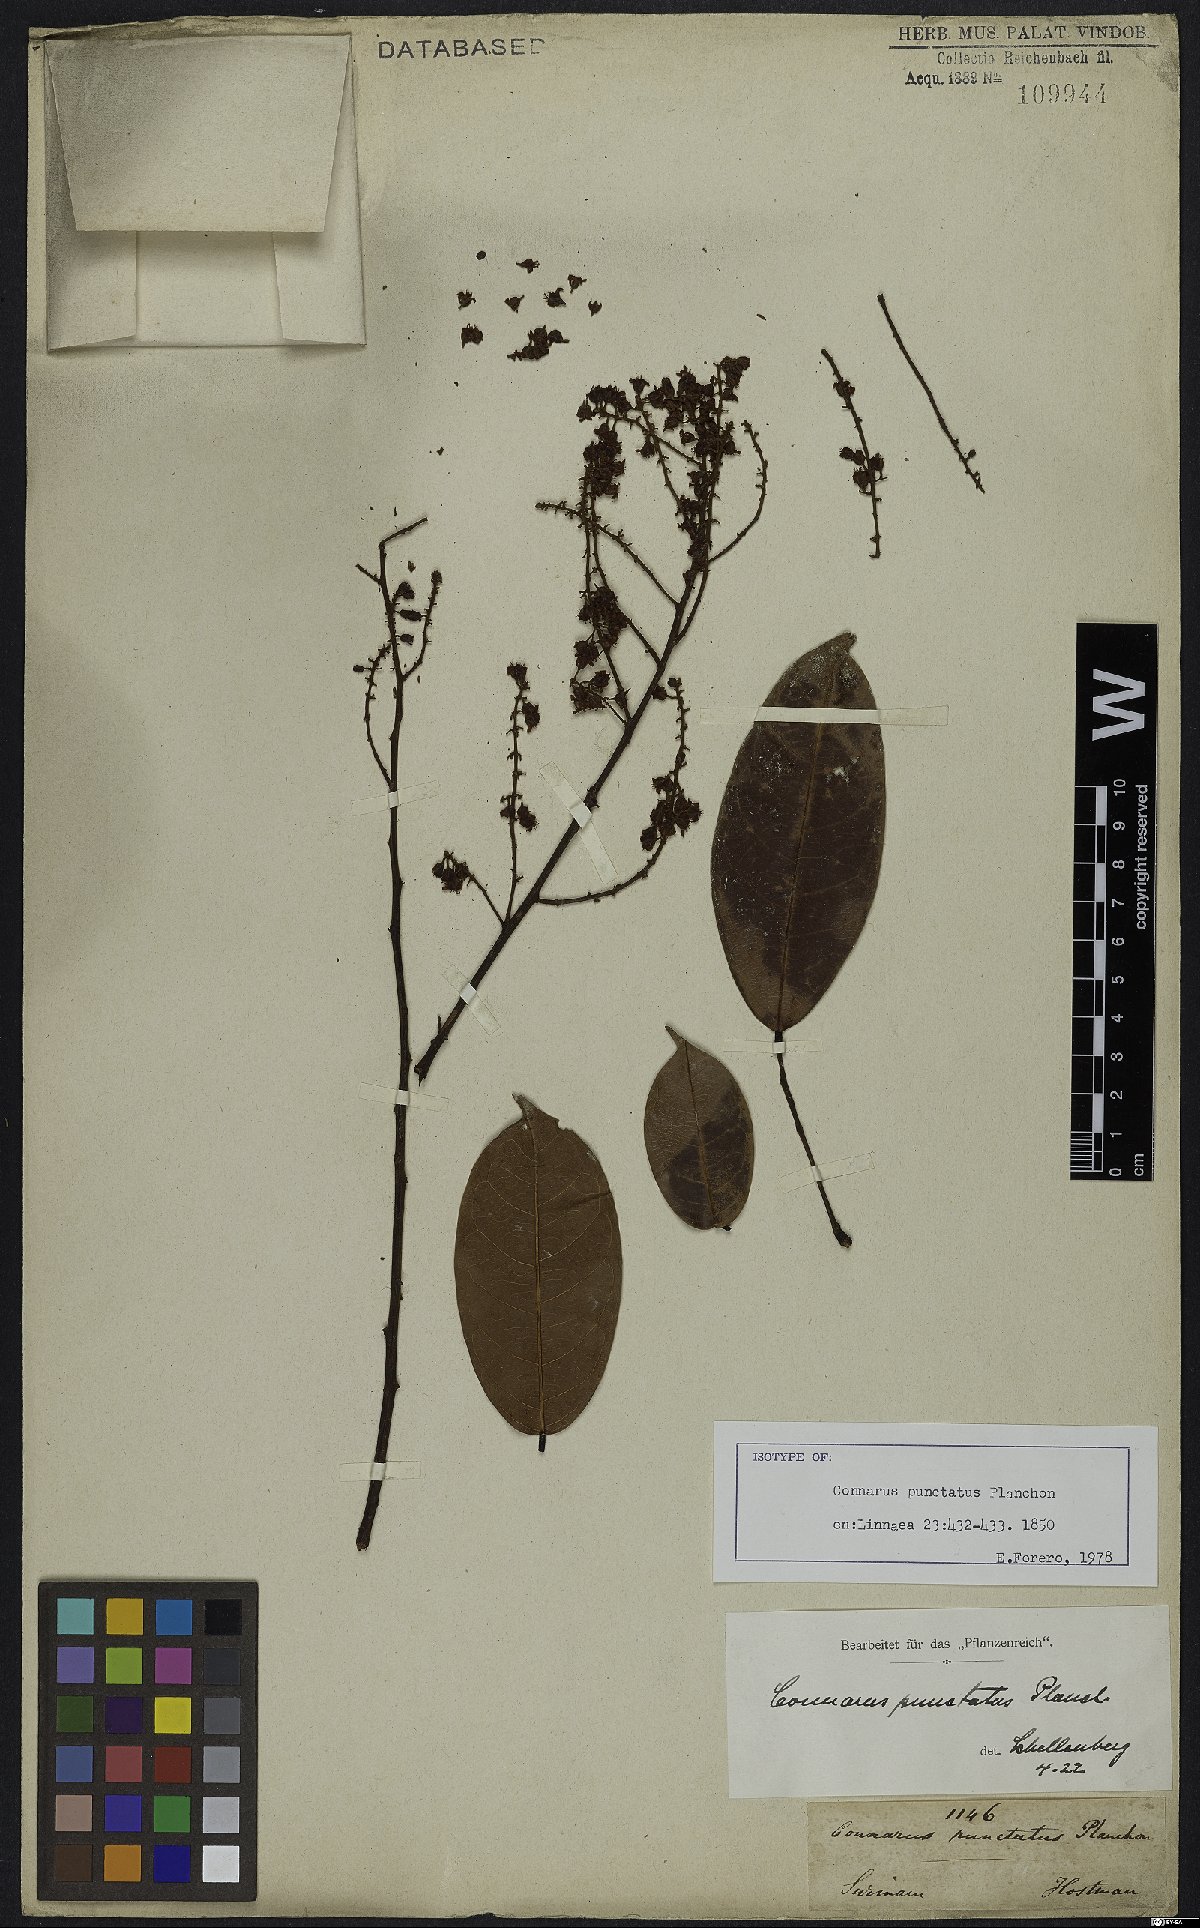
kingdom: Plantae
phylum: Tracheophyta
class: Magnoliopsida
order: Oxalidales
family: Connaraceae
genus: Connarus
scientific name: Connarus punctatus
